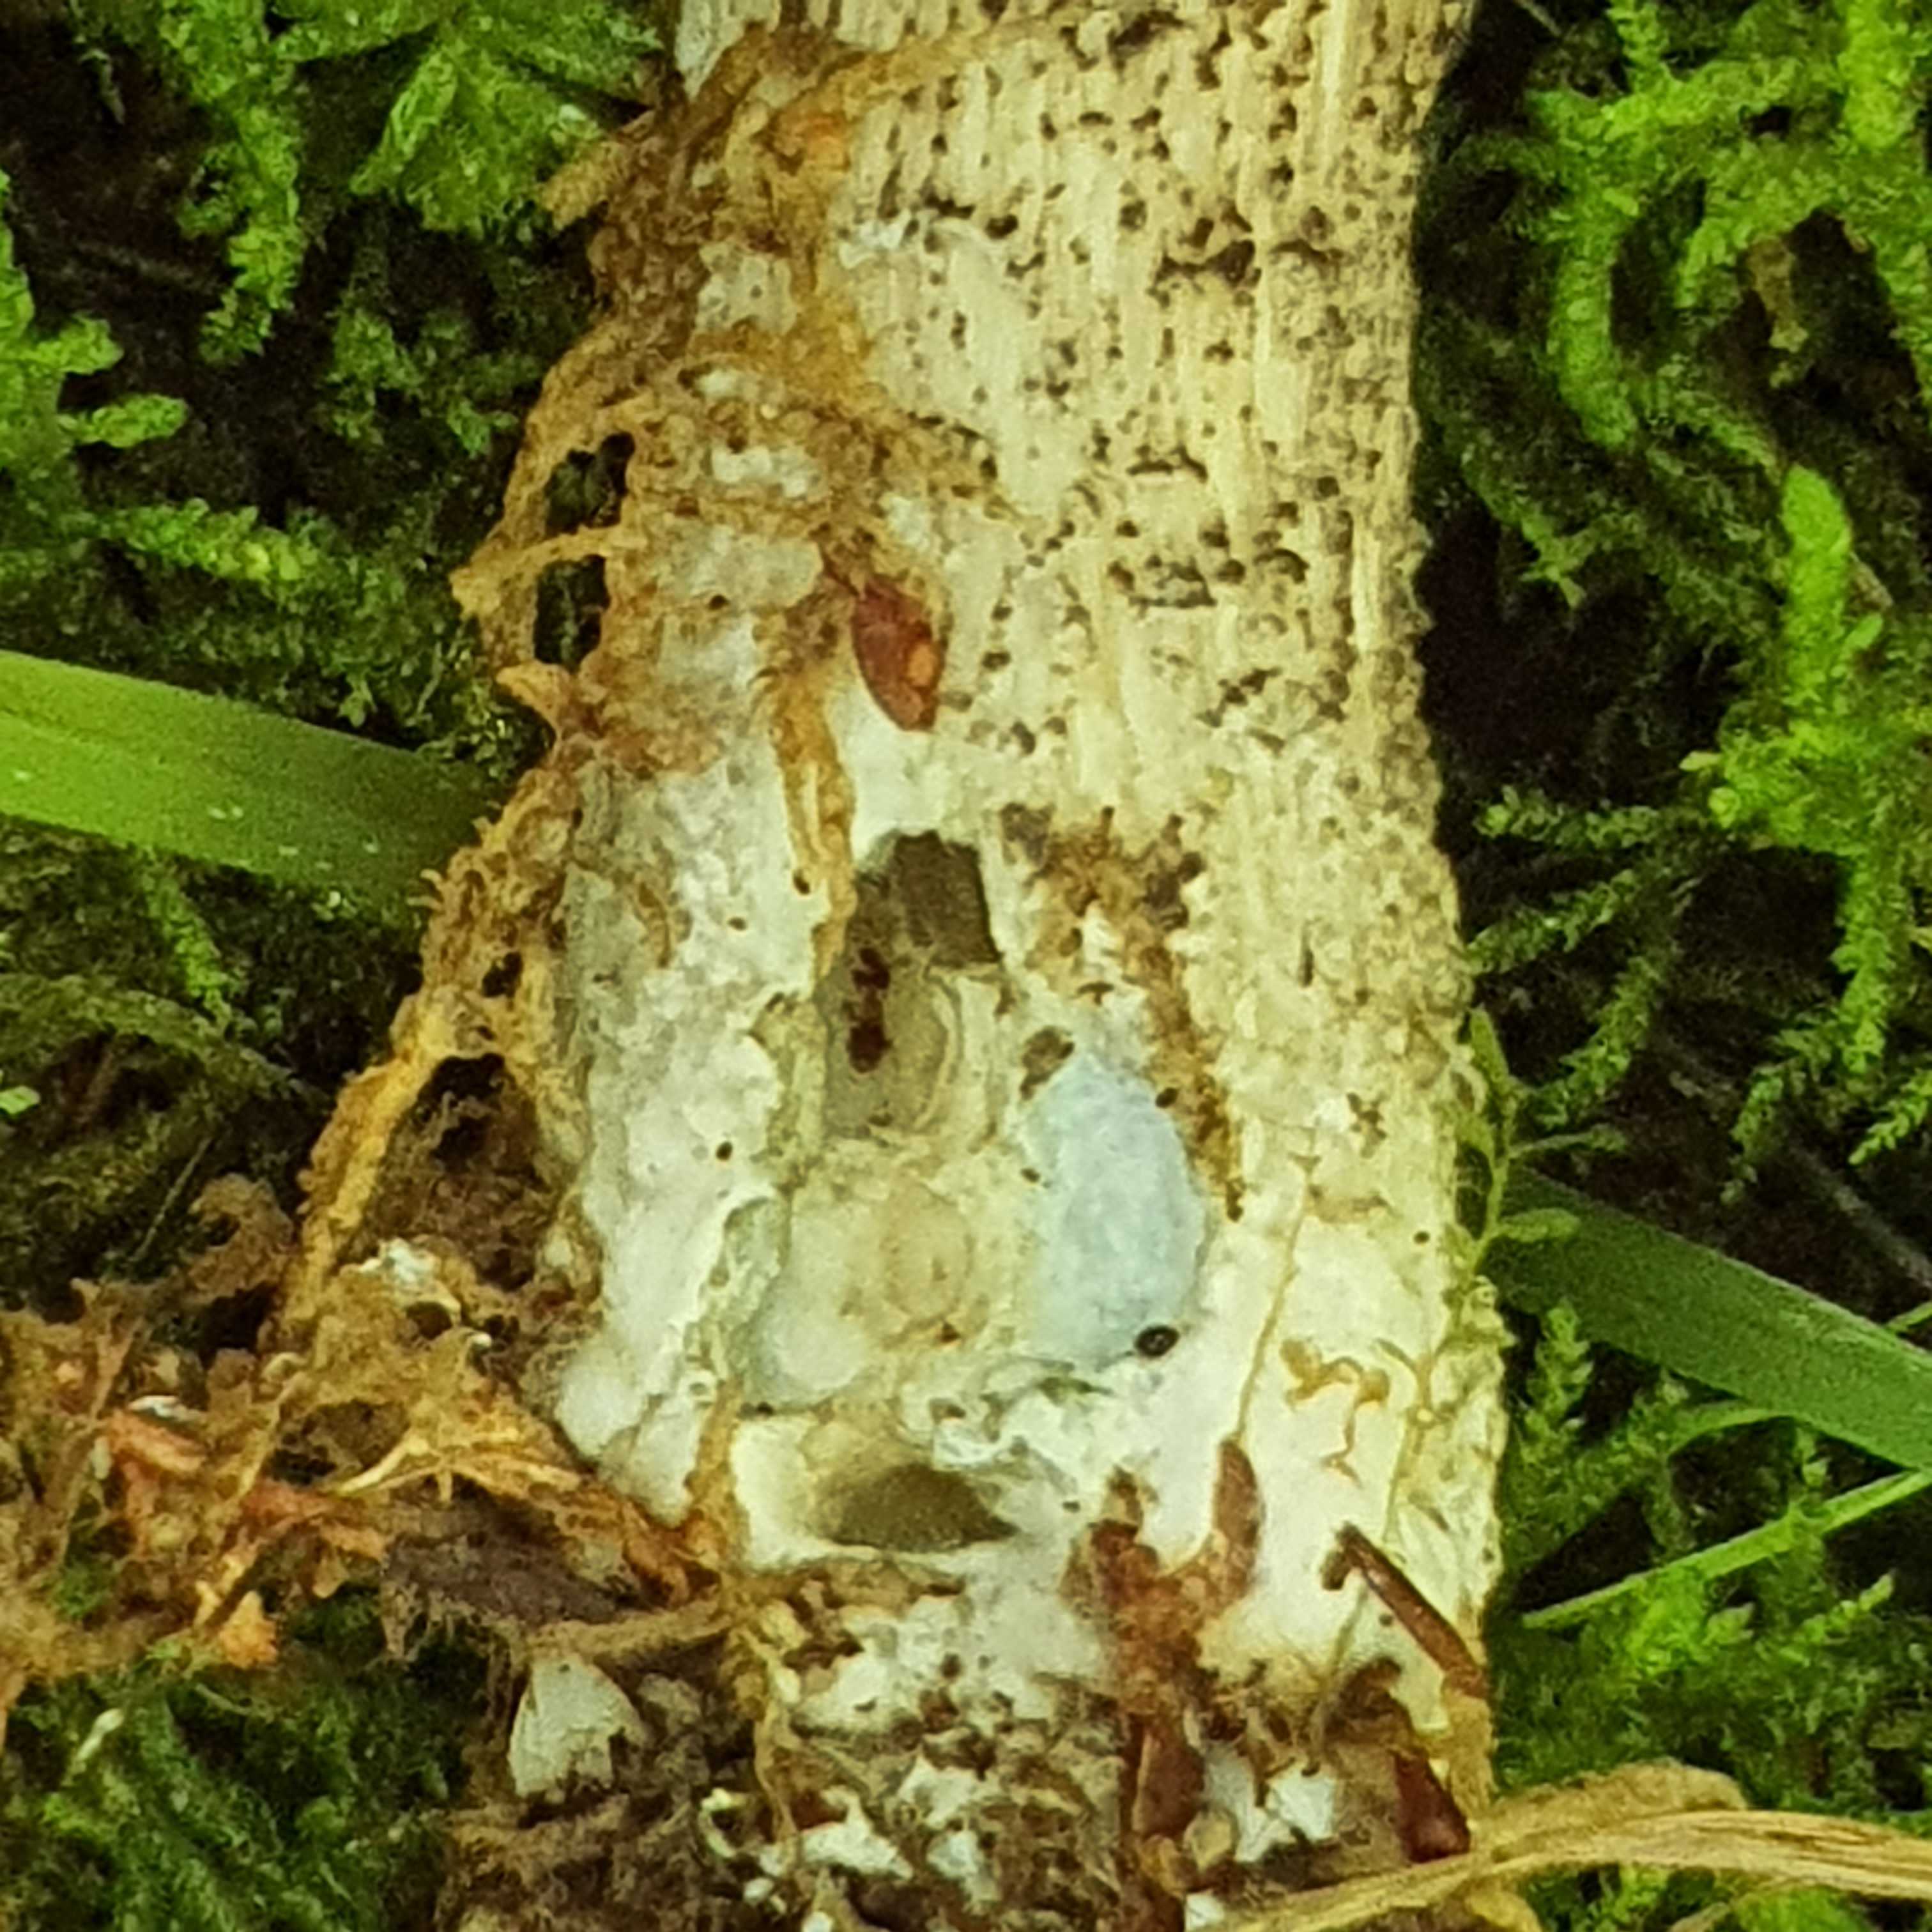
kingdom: Fungi
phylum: Basidiomycota
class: Agaricomycetes
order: Boletales
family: Boletaceae
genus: Leccinum
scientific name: Leccinum variicolor
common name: flammet skælrørhat
